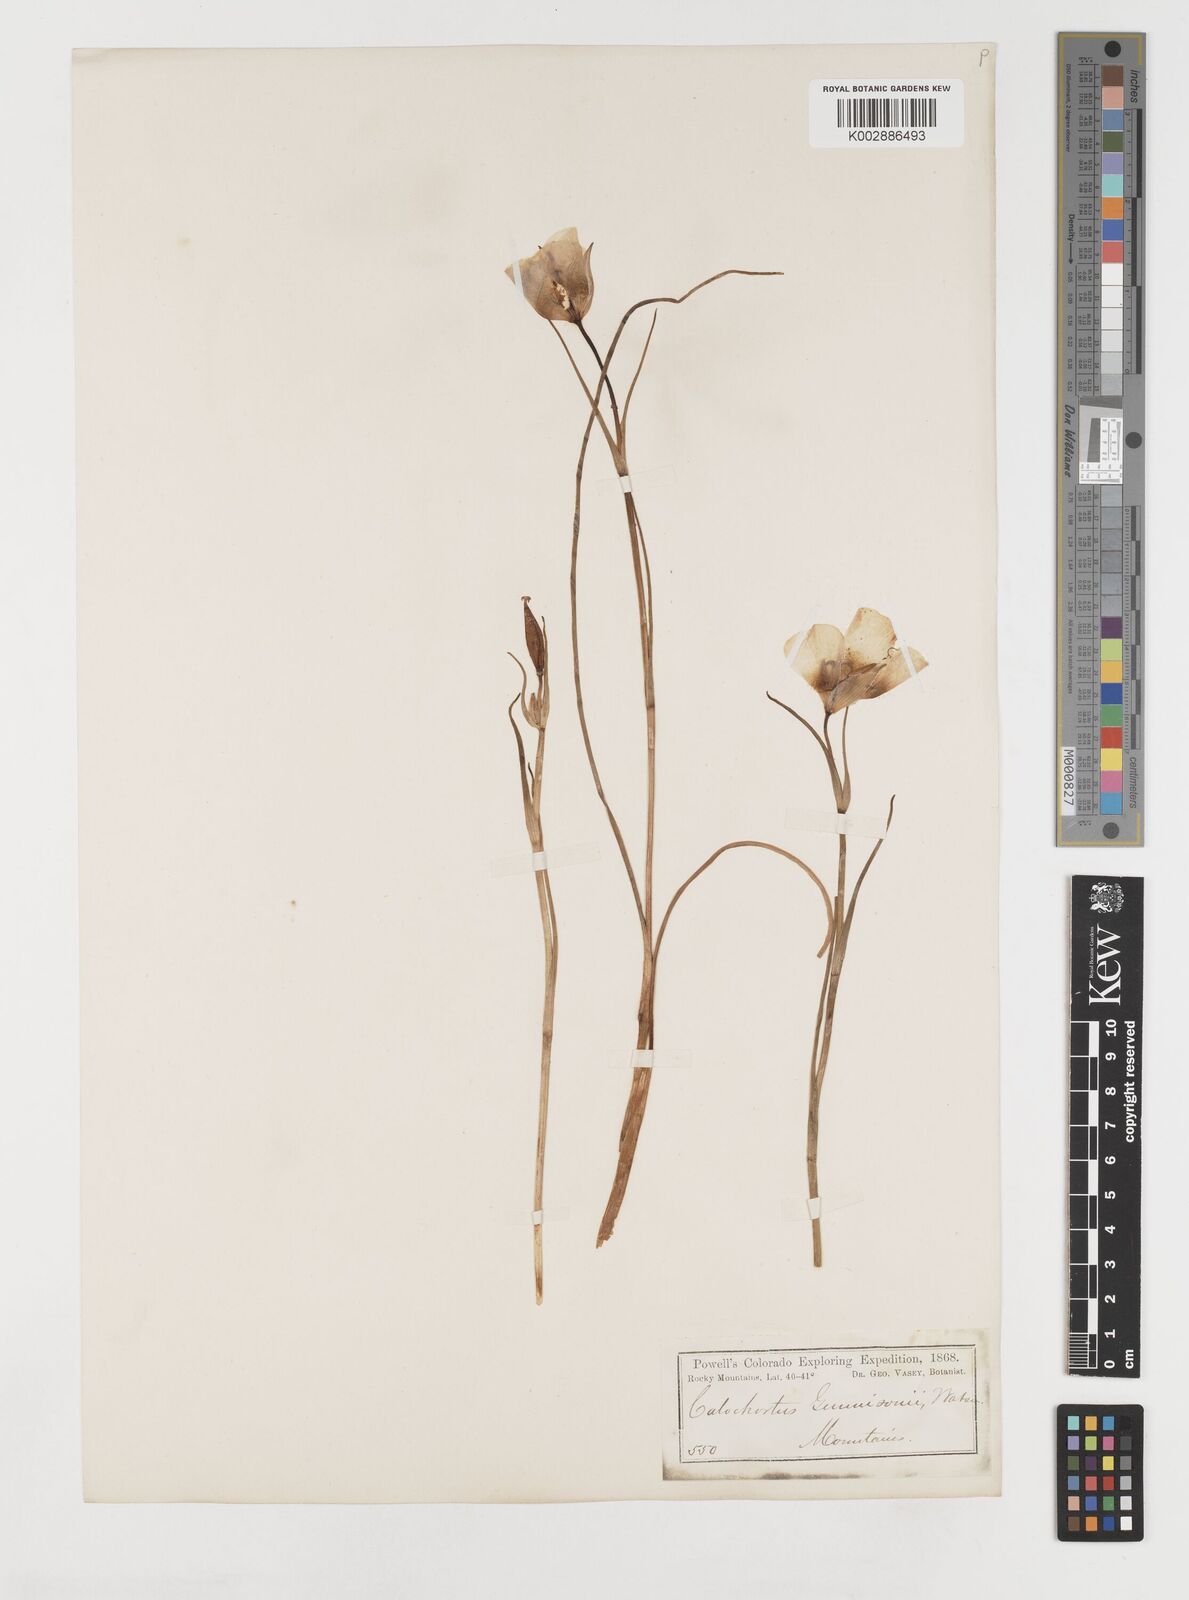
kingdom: Plantae
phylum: Tracheophyta
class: Liliopsida
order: Liliales
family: Liliaceae
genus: Calochortus
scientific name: Calochortus gunnisonii
